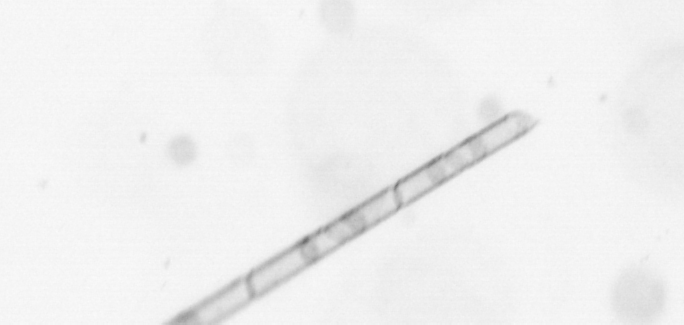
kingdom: Chromista
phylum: Ochrophyta
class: Bacillariophyceae
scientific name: Bacillariophyceae
